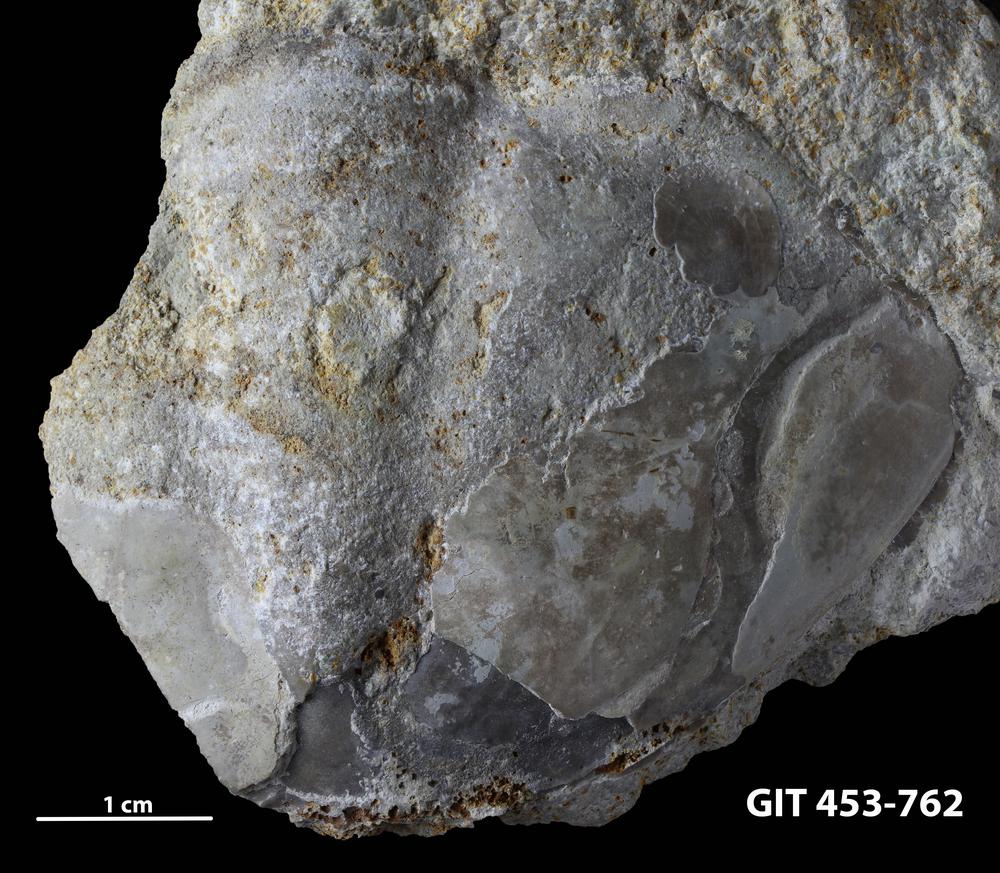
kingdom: Animalia
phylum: Arthropoda
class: Trilobita
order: Asaphida
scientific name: Asaphida
